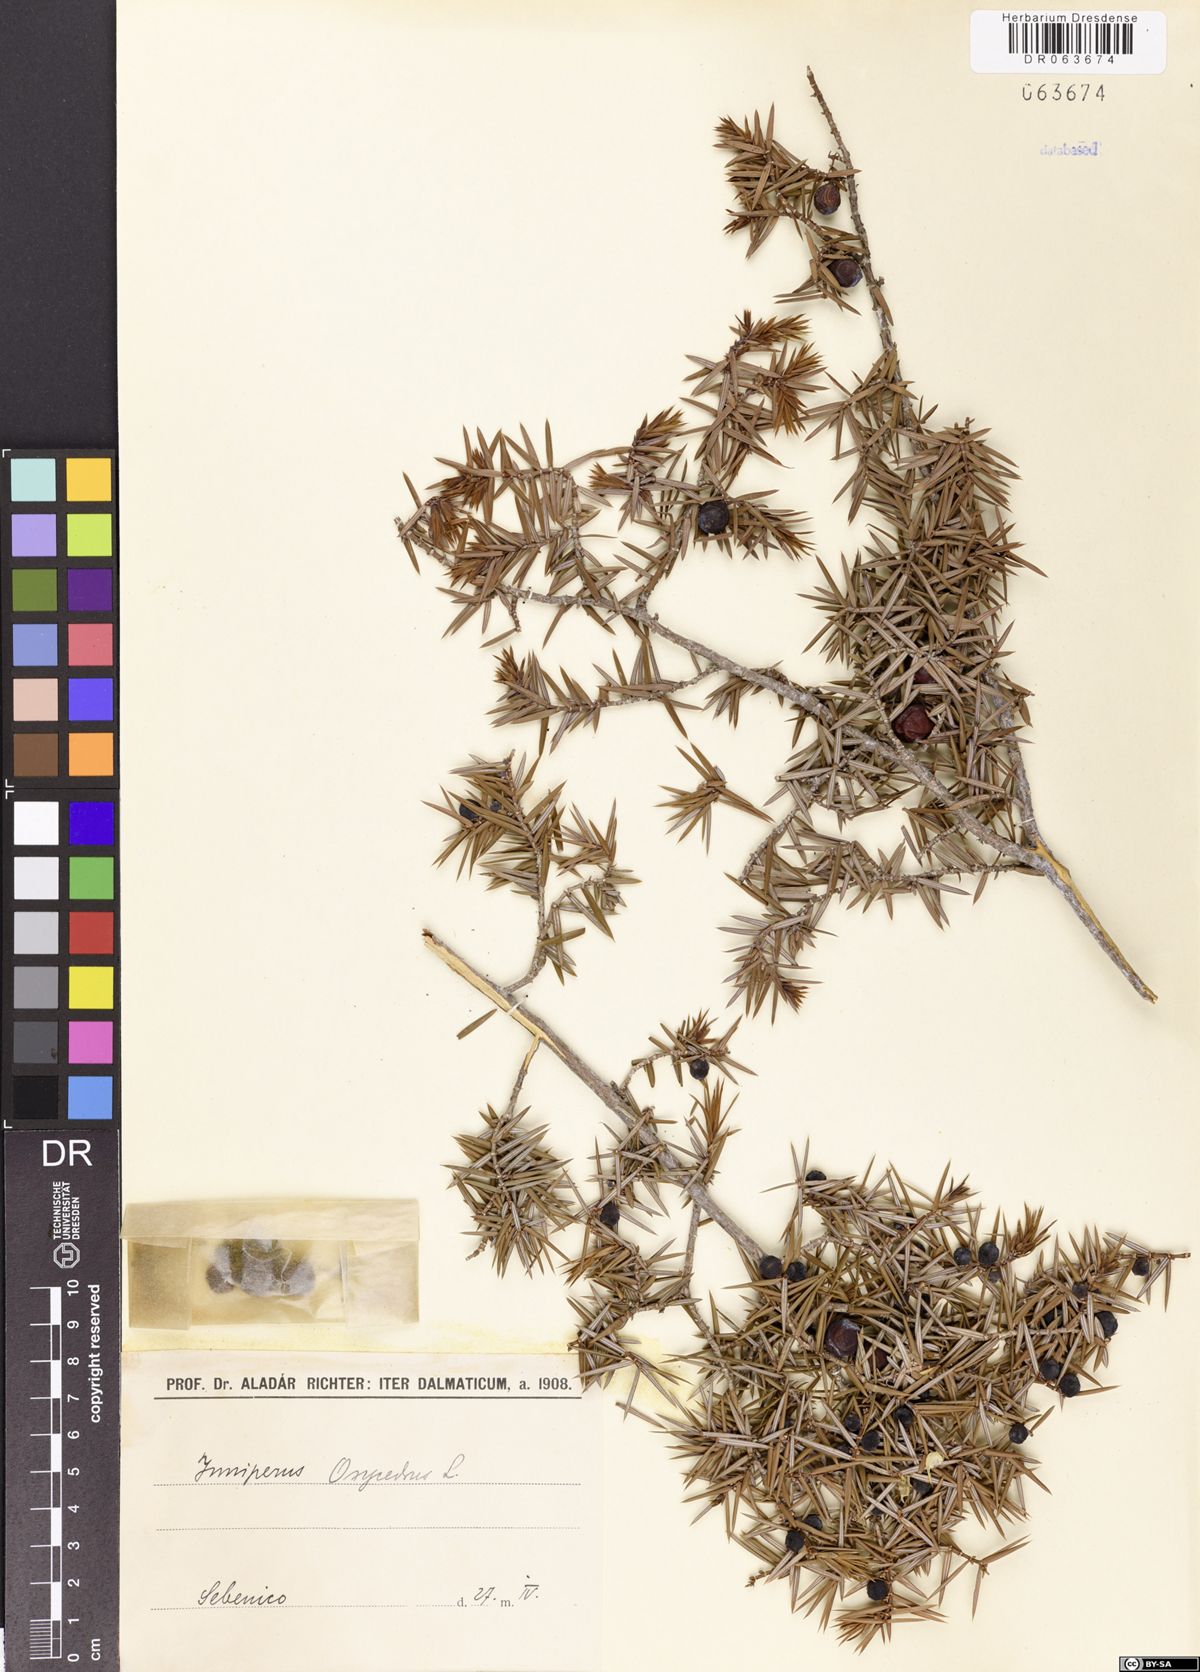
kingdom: Plantae
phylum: Tracheophyta
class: Pinopsida
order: Pinales
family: Cupressaceae
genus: Juniperus
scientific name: Juniperus oxycedrus
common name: Prickly juniper
